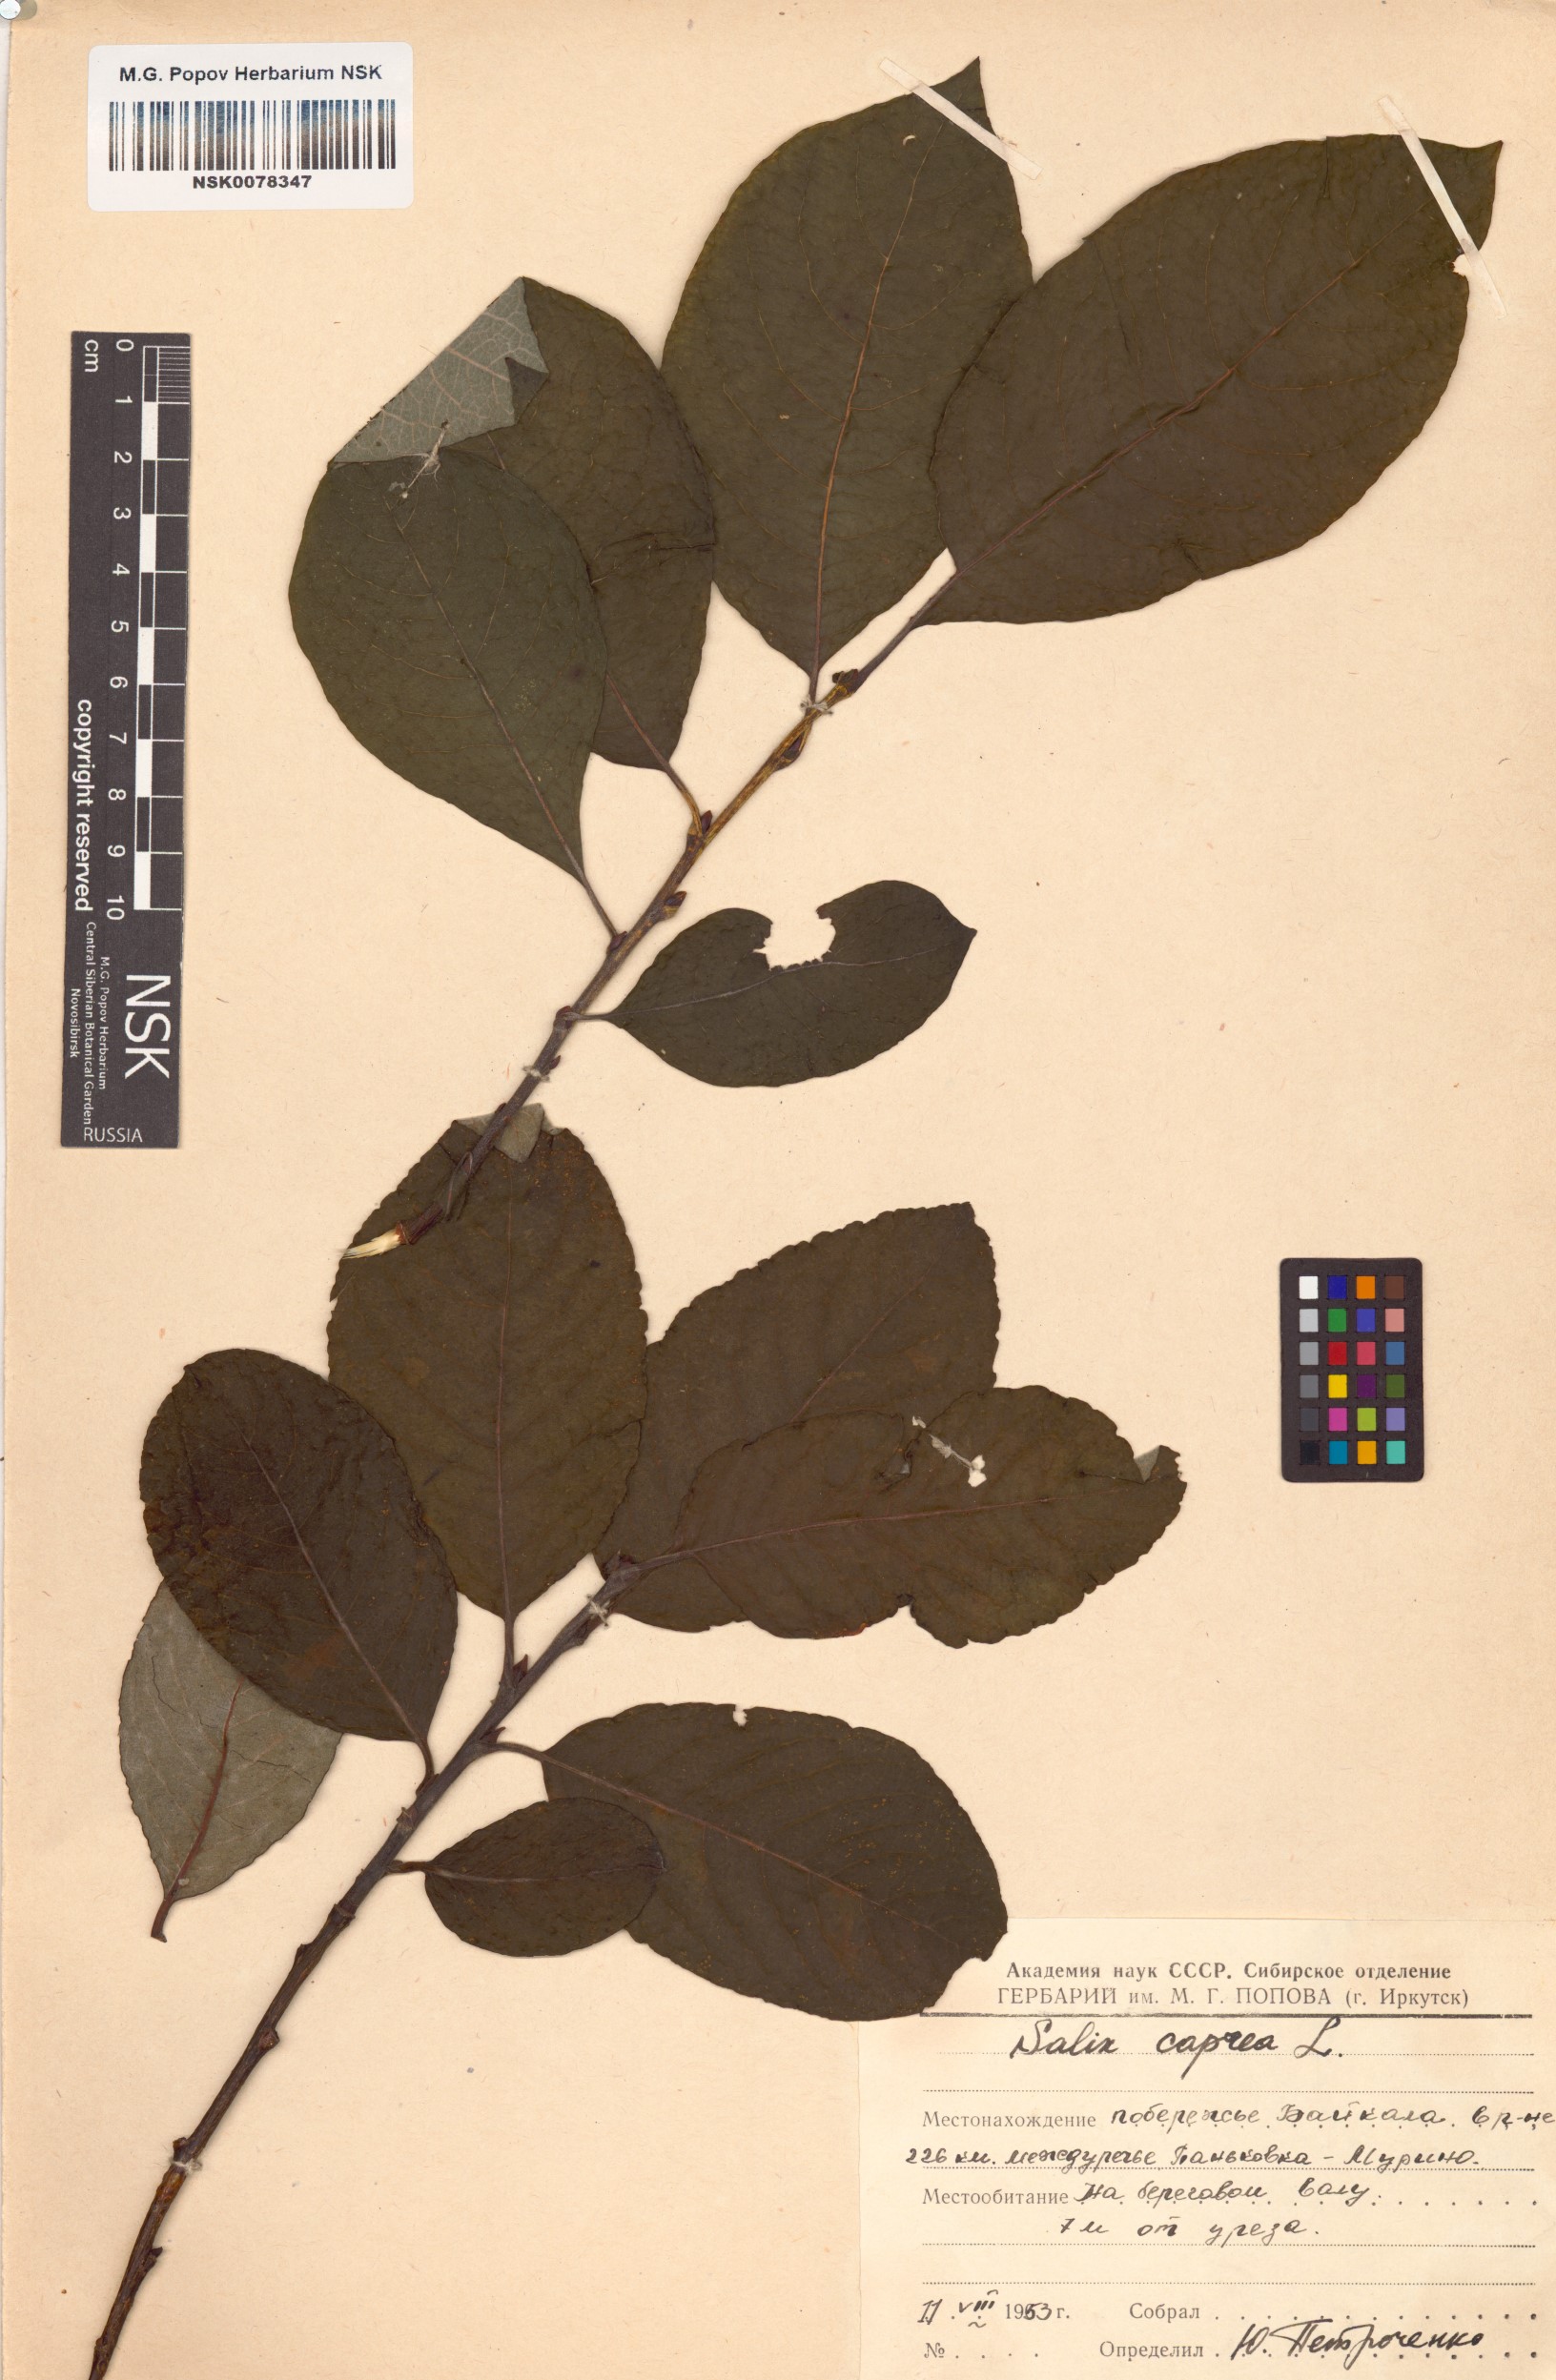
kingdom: Plantae
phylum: Tracheophyta
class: Magnoliopsida
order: Malpighiales
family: Salicaceae
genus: Salix
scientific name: Salix caprea
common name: Goat willow
